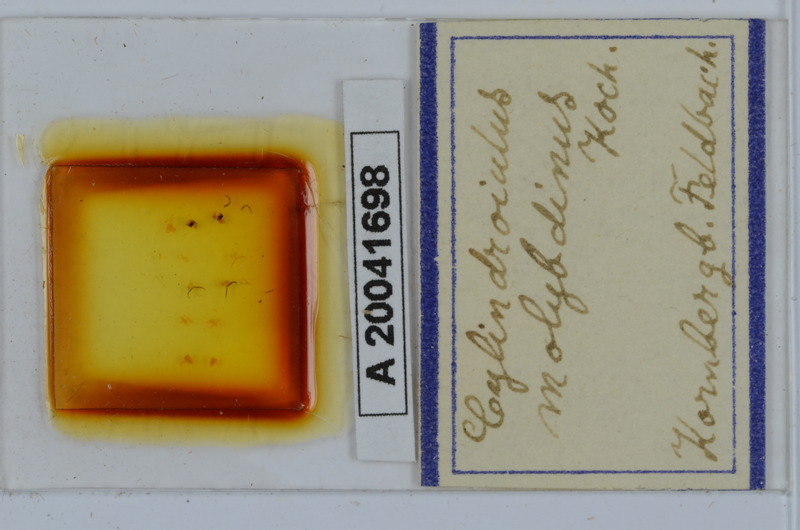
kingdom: Animalia
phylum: Arthropoda
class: Diplopoda
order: Julida
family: Julidae
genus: Allajulus
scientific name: Allajulus molybdinus
